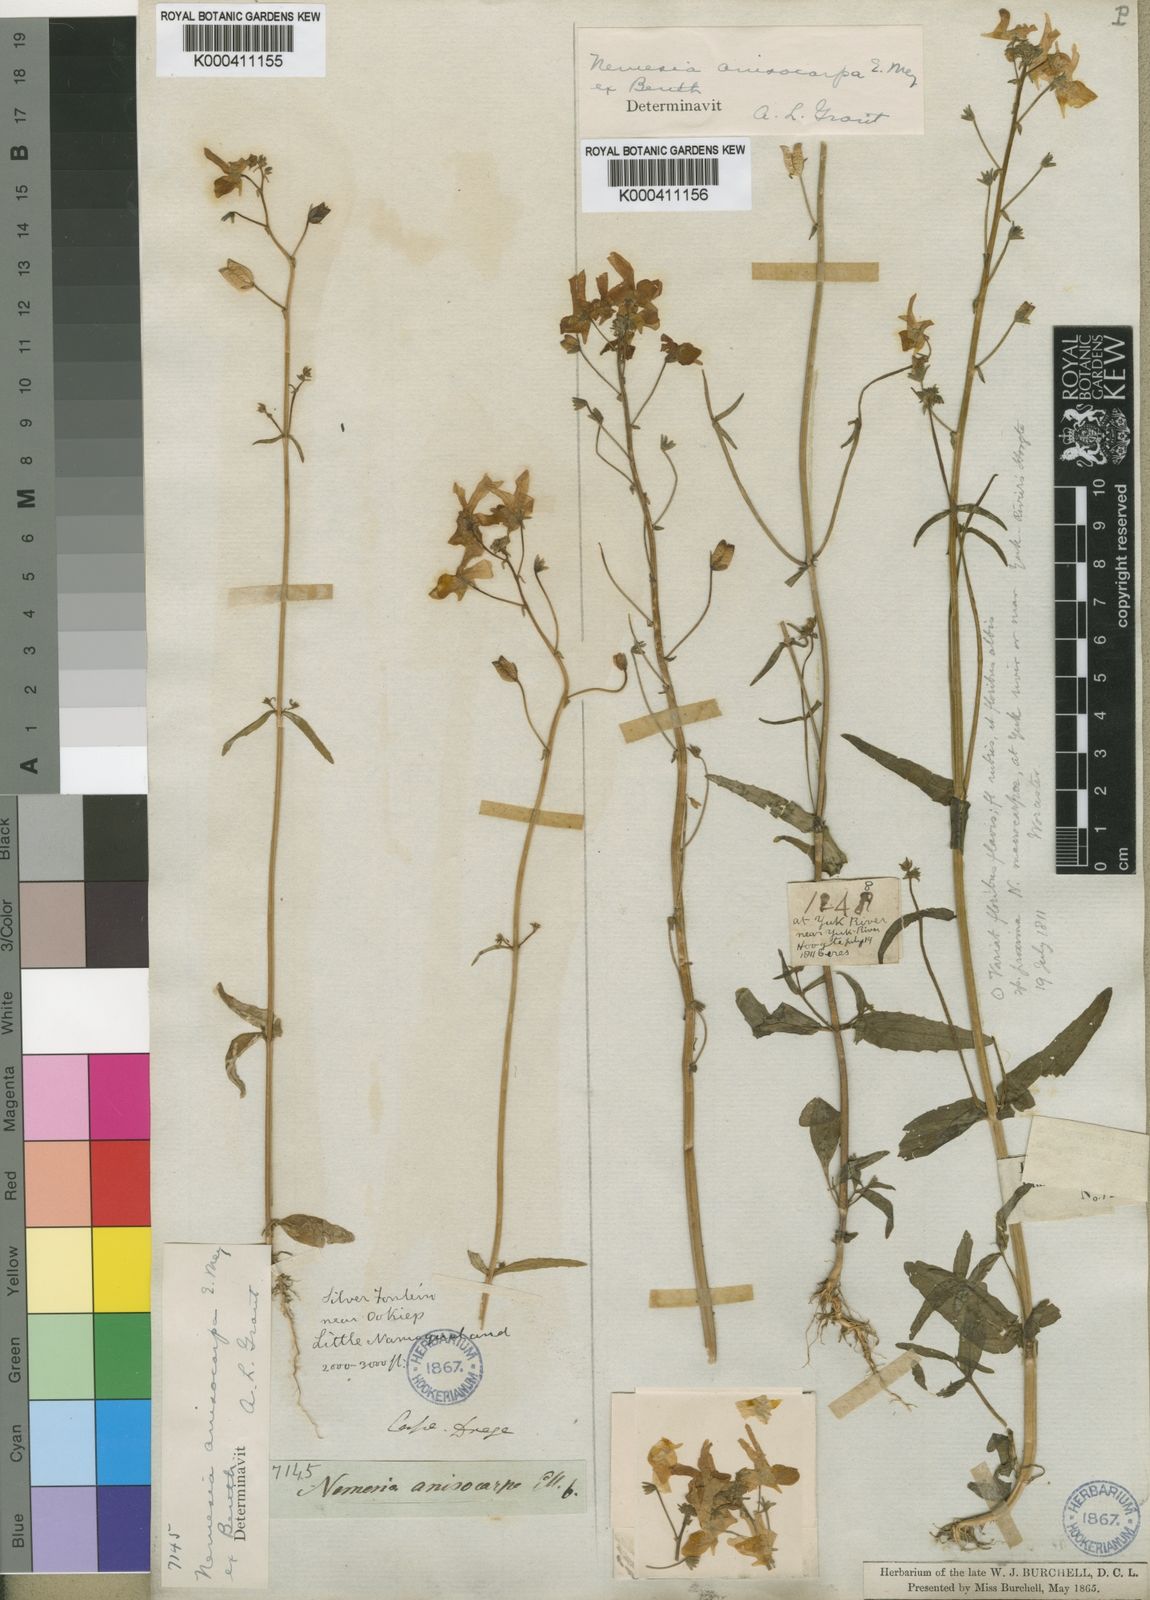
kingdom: Plantae
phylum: Tracheophyta
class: Magnoliopsida
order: Lamiales
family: Scrophulariaceae
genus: Nemesia
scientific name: Nemesia anisocarpa
